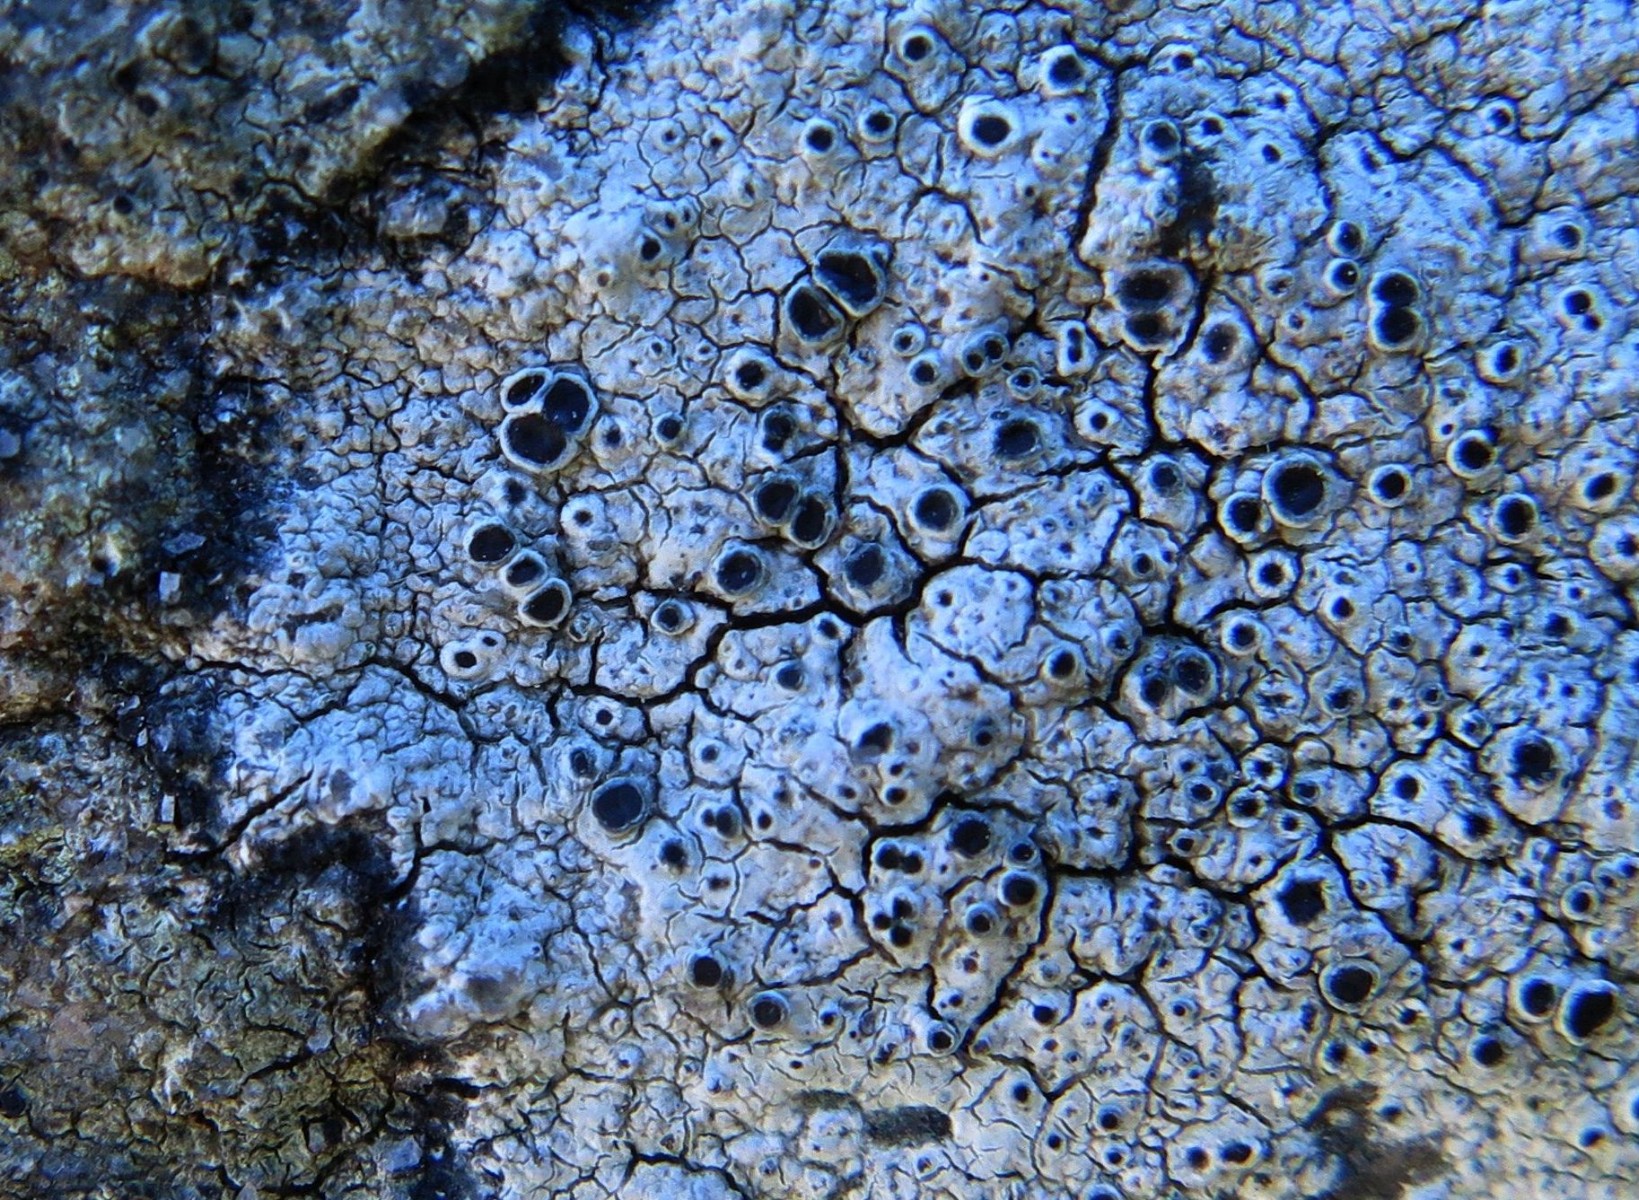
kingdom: Fungi
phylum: Ascomycota
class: Lecanoromycetes
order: Lecanorales
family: Tephromelataceae
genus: Tephromela
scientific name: Tephromela atra
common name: sortfrugtet kantskivelav
